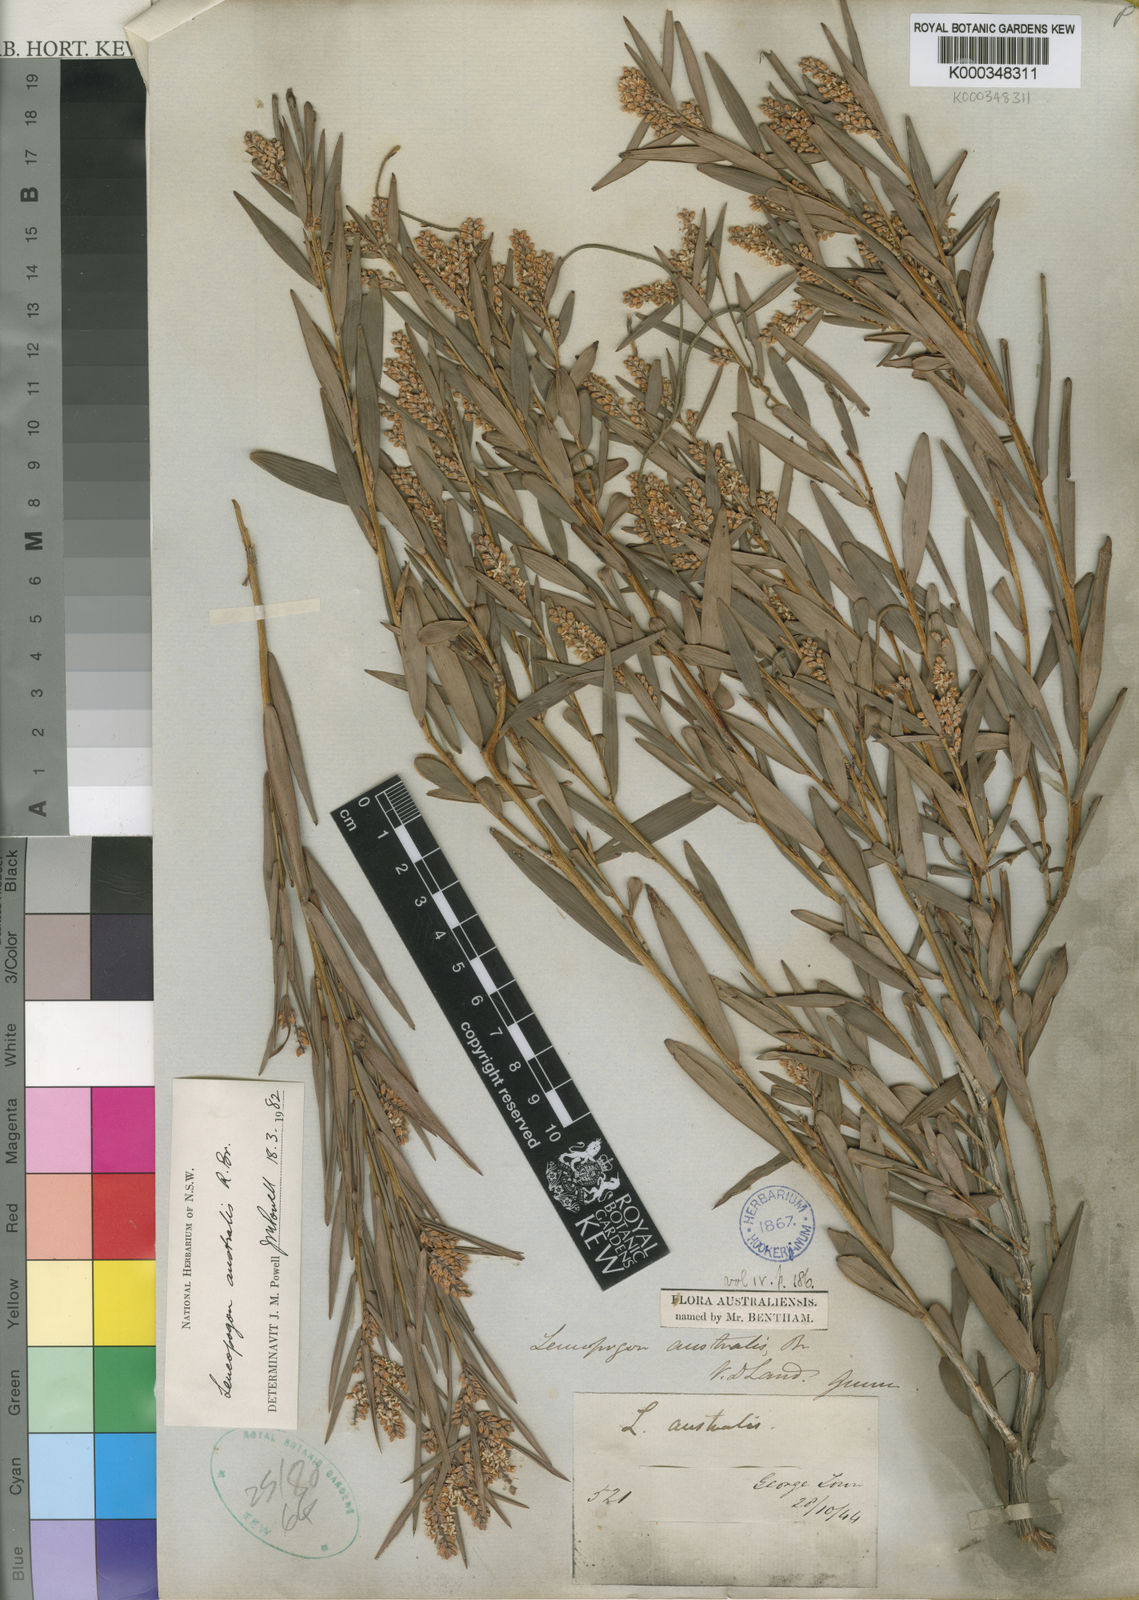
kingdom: Plantae
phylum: Tracheophyta
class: Magnoliopsida
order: Ericales
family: Ericaceae
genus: Leucopogon
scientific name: Leucopogon australis
